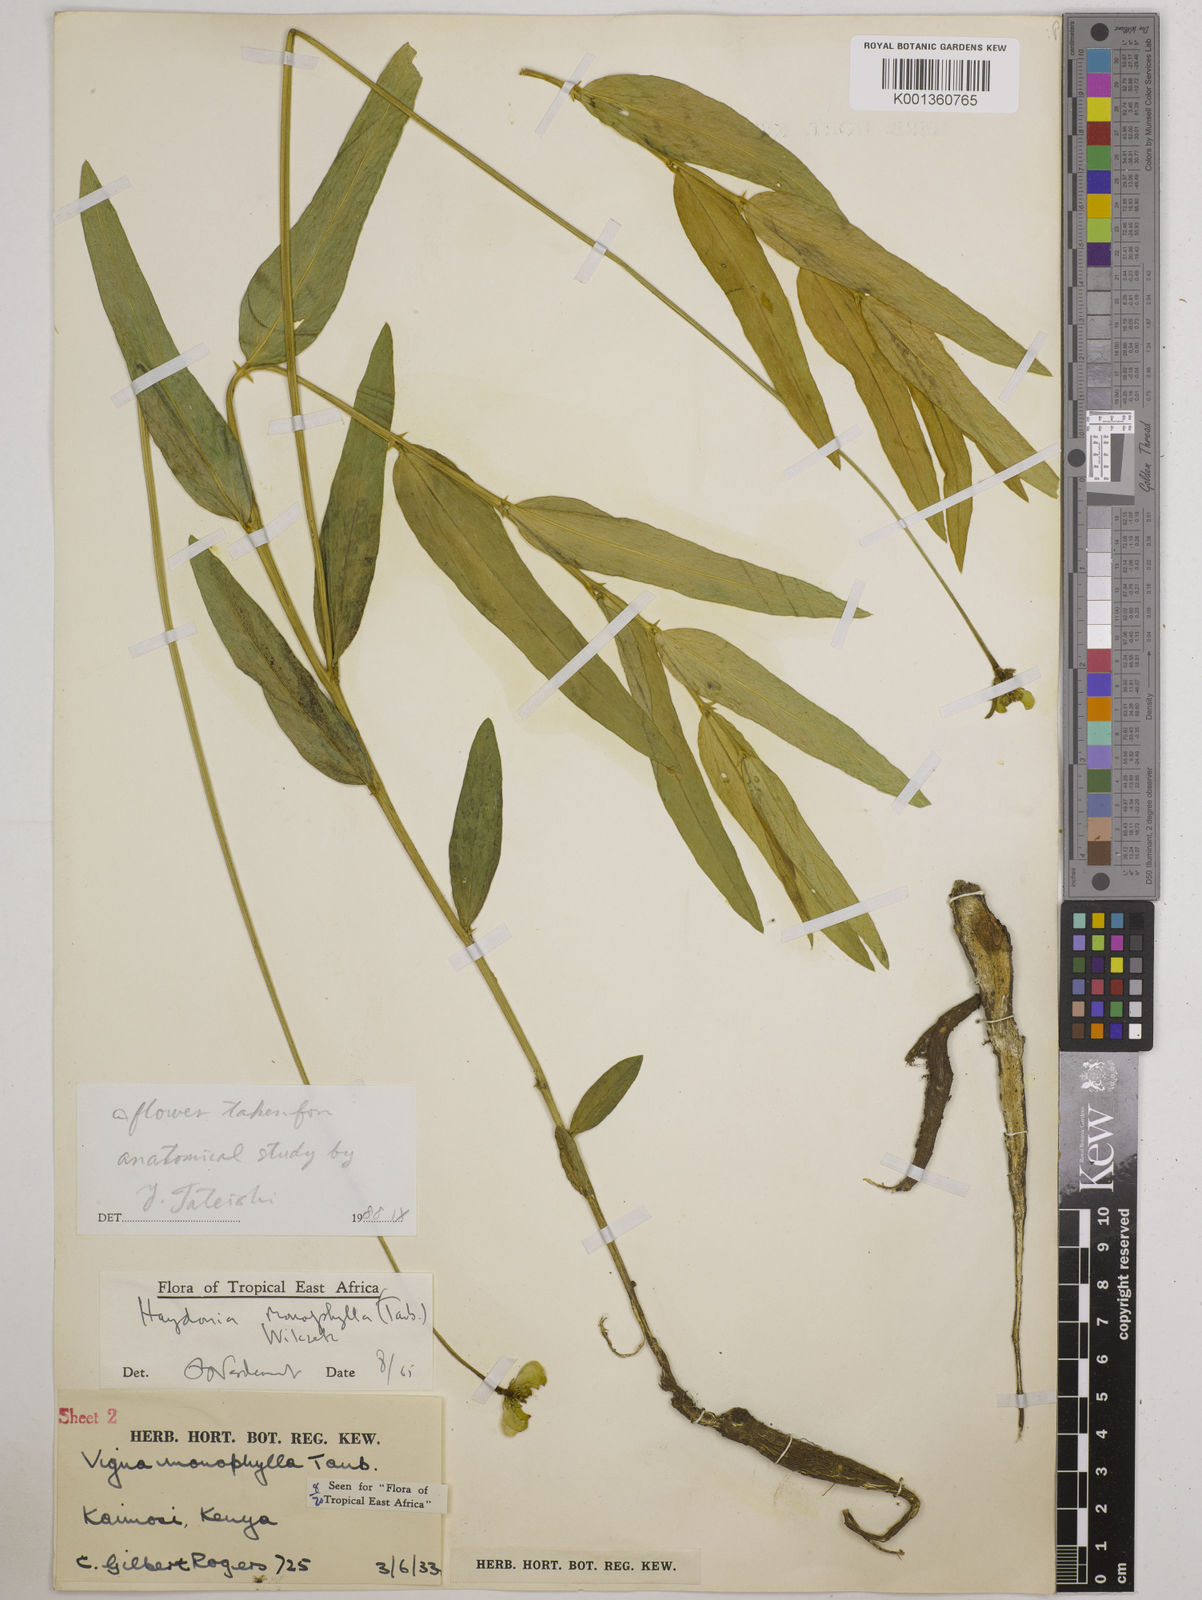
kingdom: Plantae
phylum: Tracheophyta
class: Magnoliopsida
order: Fabales
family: Fabaceae
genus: Vigna
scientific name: Vigna monophylla
